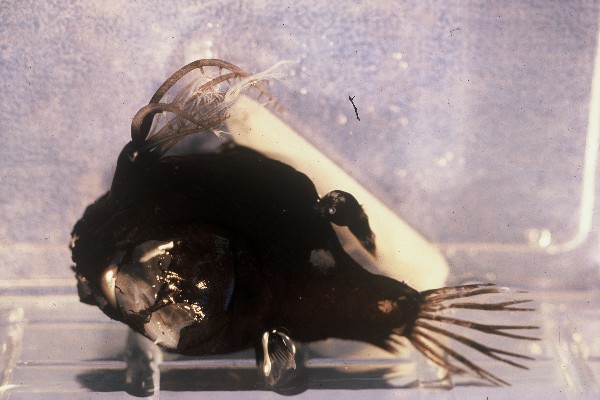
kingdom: Animalia
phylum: Chordata
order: Lophiiformes
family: Linophrynidae
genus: Linophryne
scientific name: Linophryne densiramus
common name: Thickbranch angler
